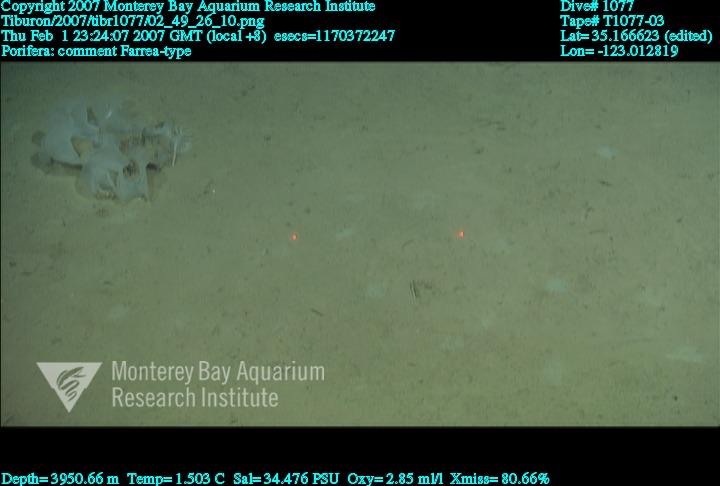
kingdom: Animalia
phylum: Porifera
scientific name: Porifera
